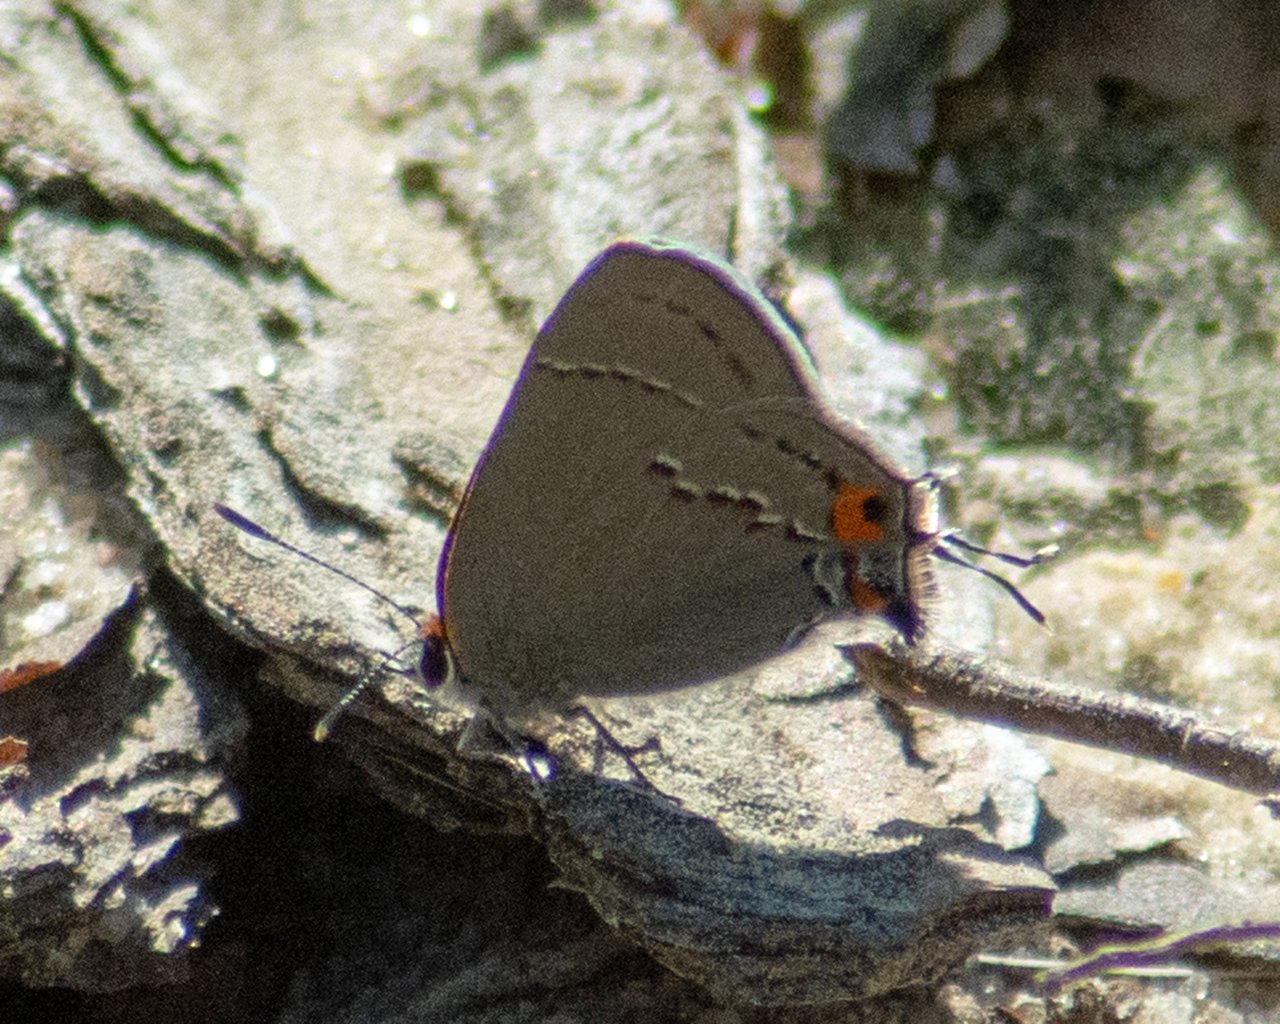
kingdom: Animalia
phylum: Arthropoda
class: Insecta
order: Lepidoptera
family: Lycaenidae
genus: Strymon
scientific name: Strymon melinus
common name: Gray Hairstreak
